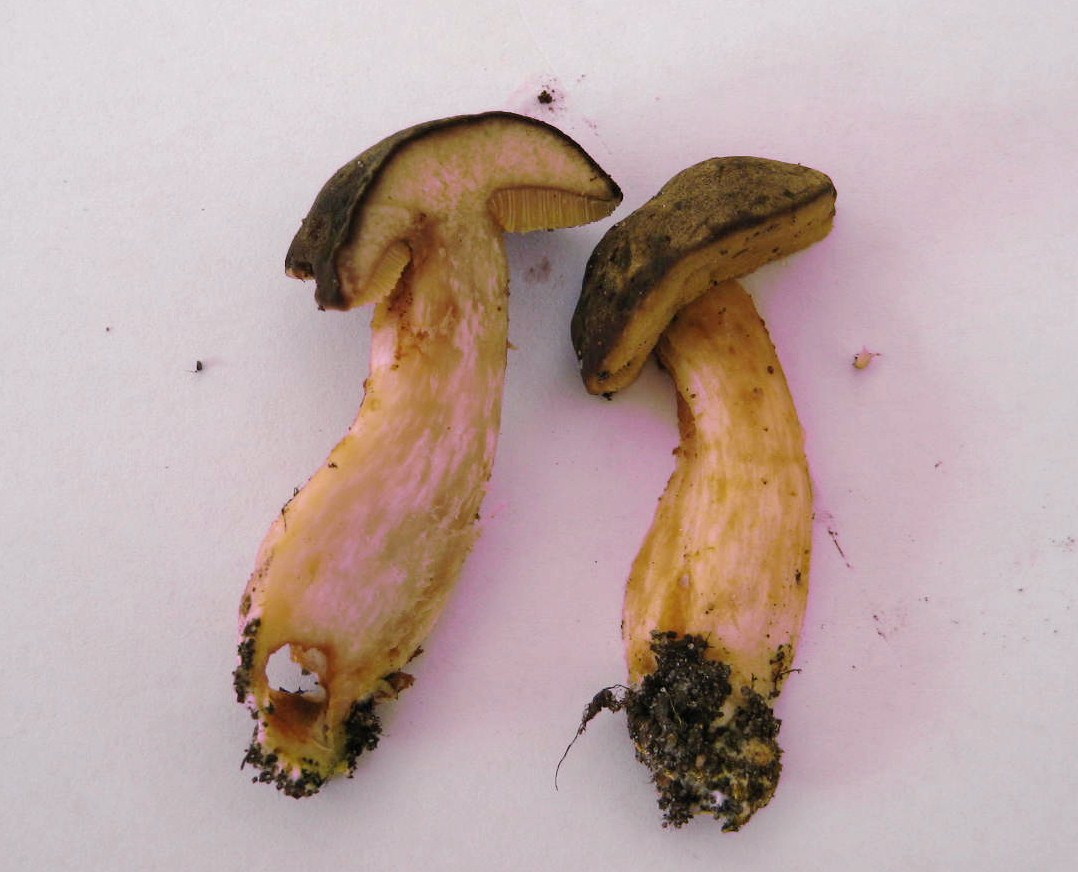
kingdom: Fungi
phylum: Basidiomycota
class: Agaricomycetes
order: Boletales
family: Boletaceae
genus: Xerocomellus
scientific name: Xerocomellus pruinatus
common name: dugget rørhat
